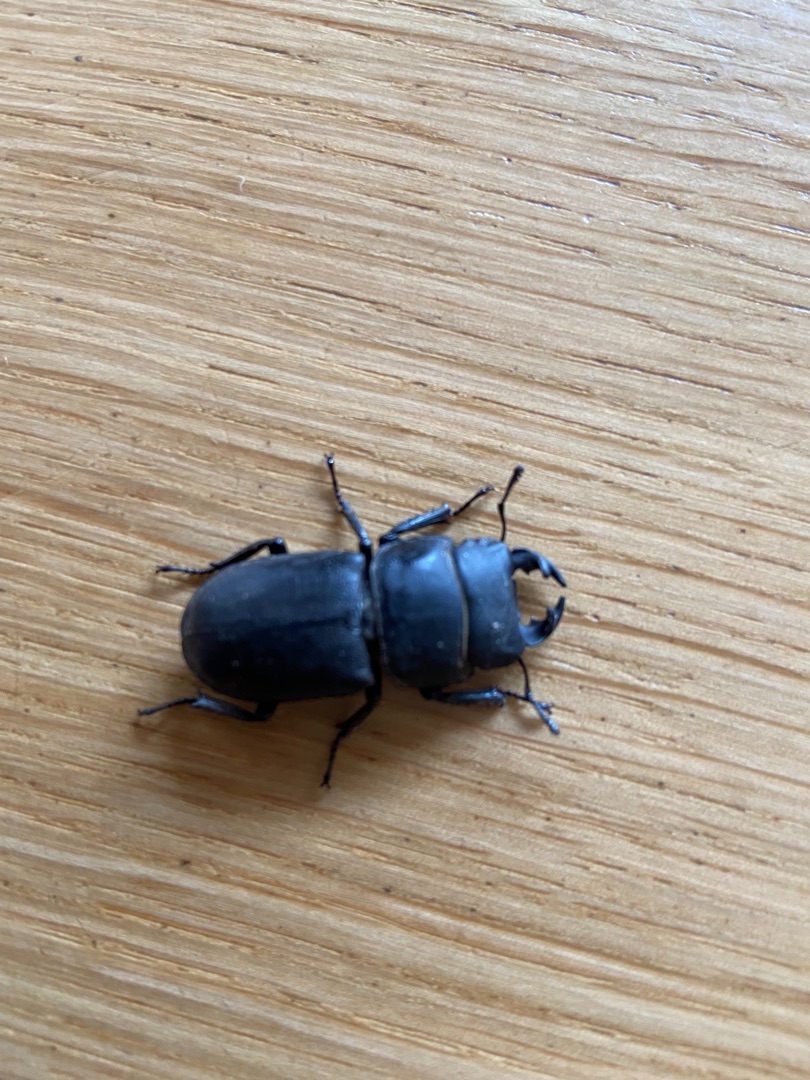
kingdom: Animalia
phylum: Arthropoda
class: Insecta
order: Coleoptera
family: Lucanidae
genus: Dorcus
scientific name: Dorcus parallelipipedus
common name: Bøghjort
